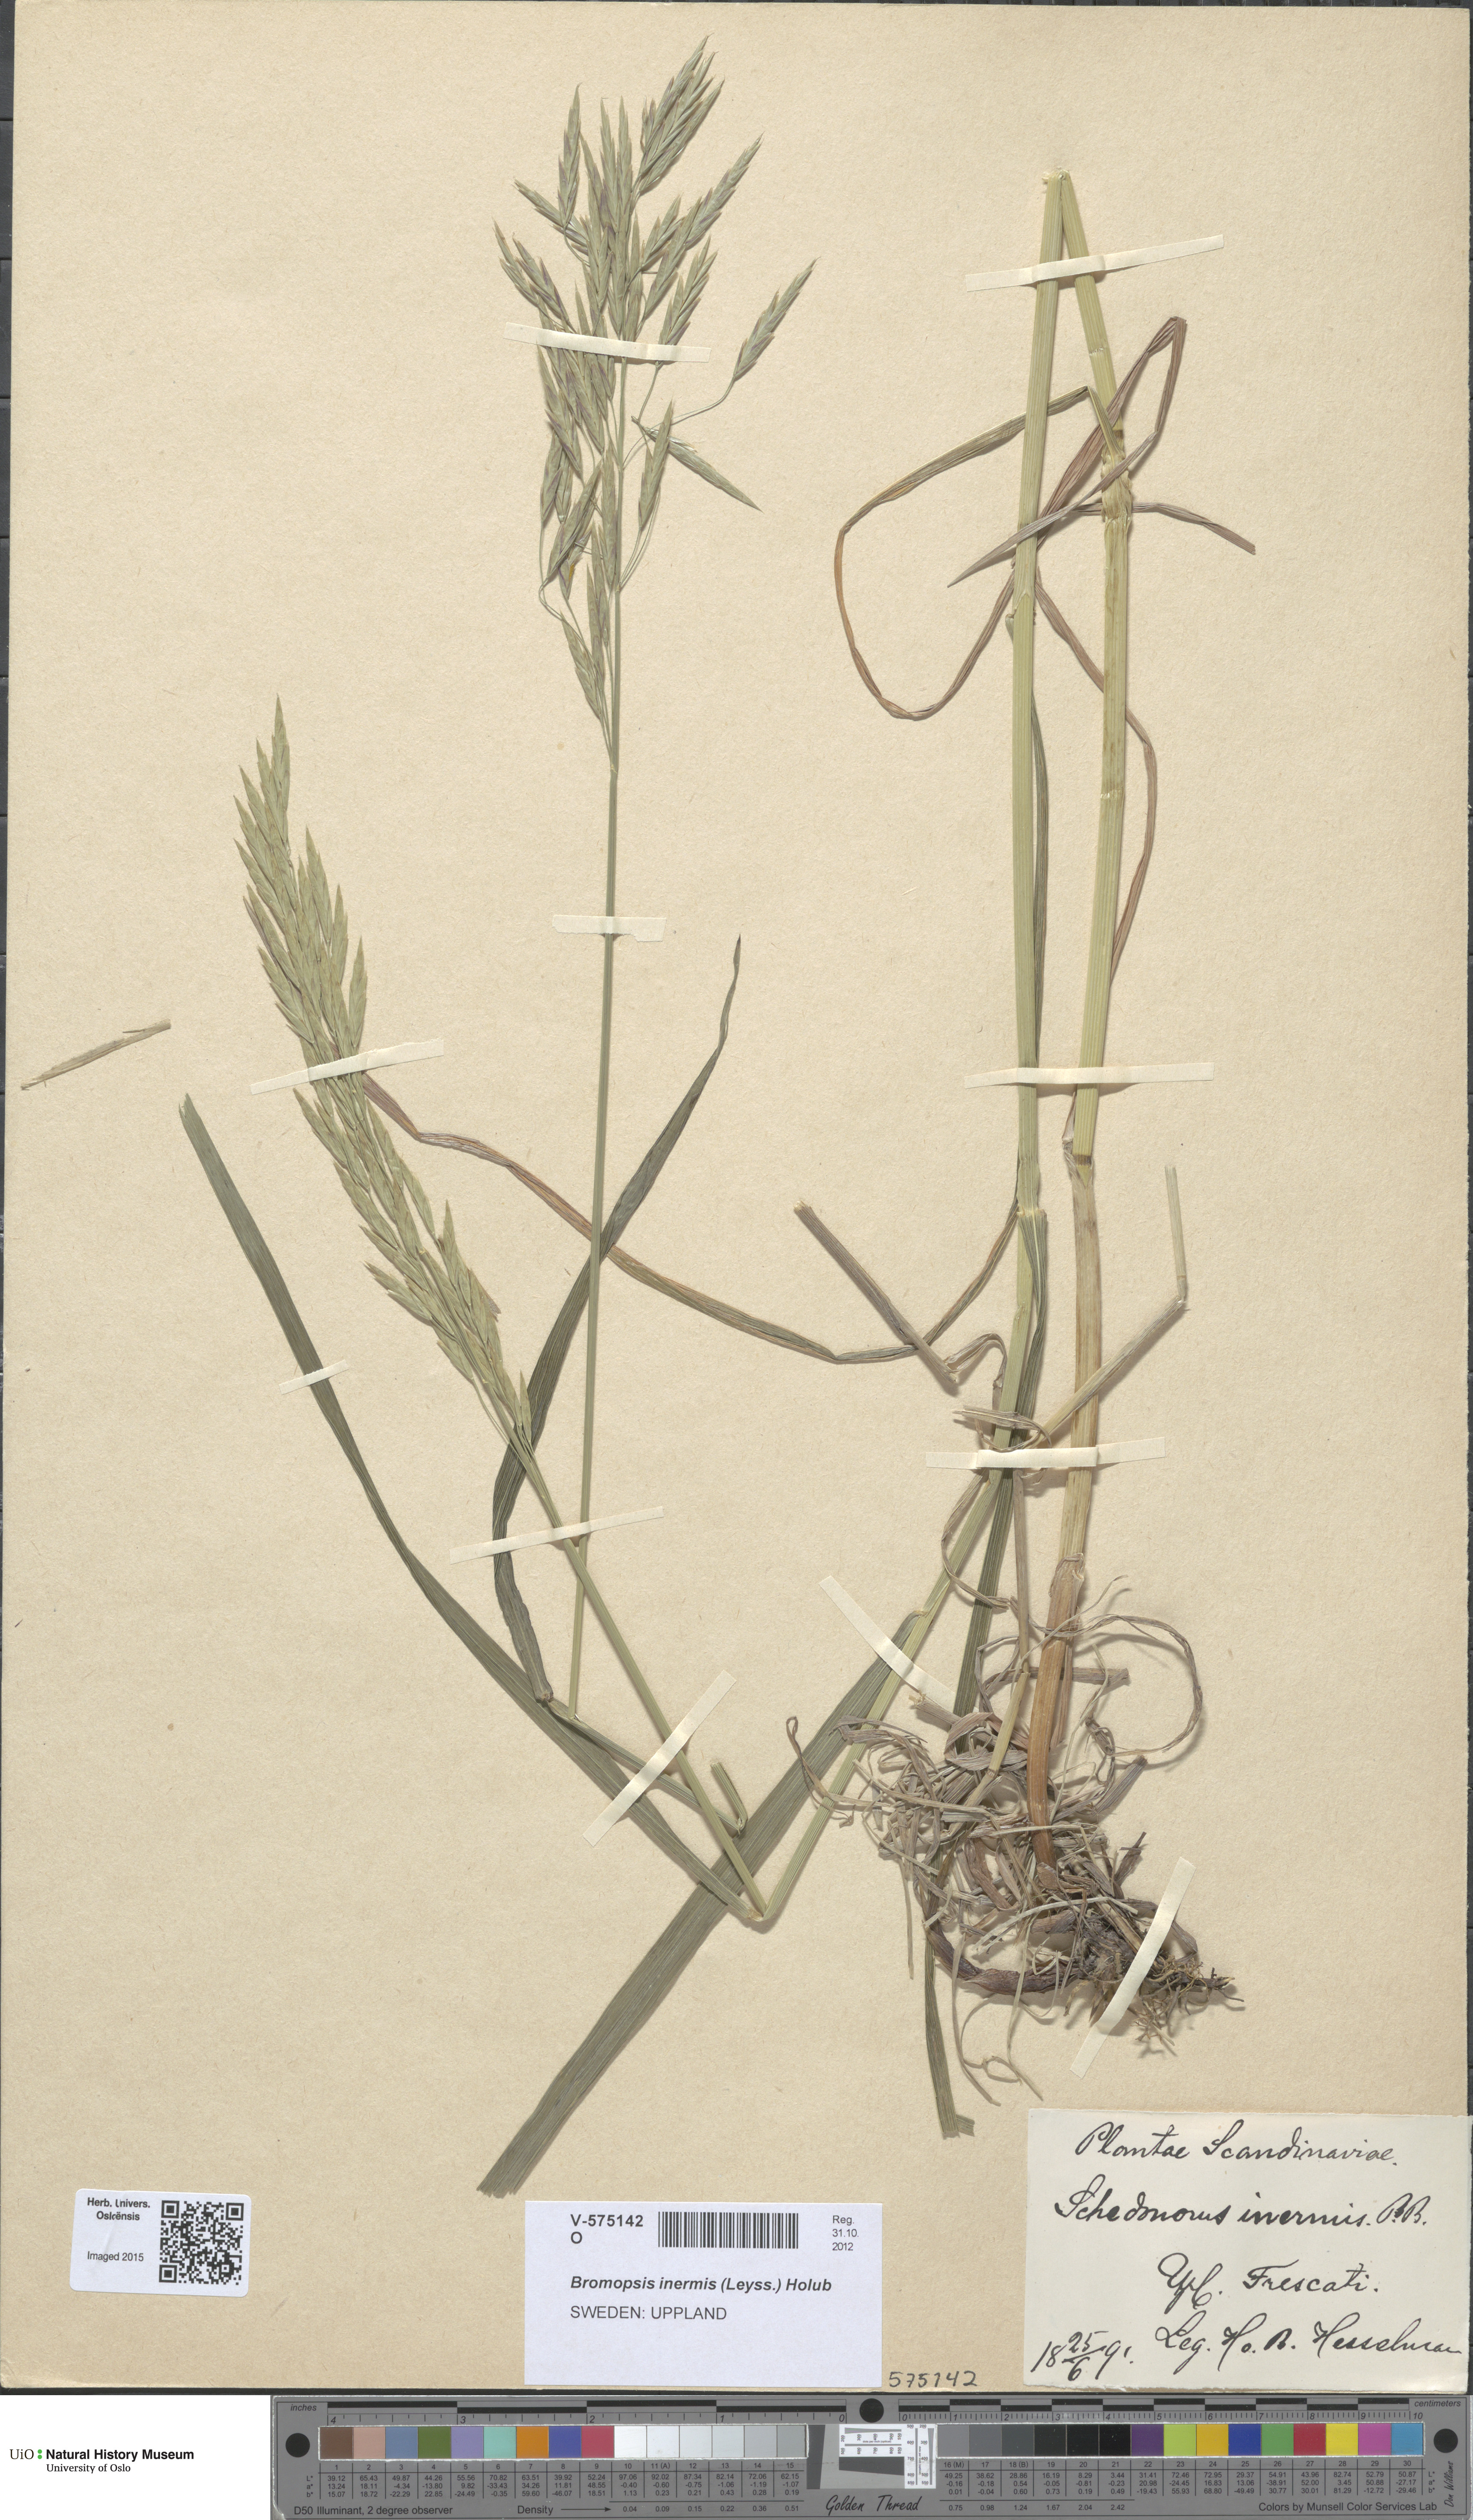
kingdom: Plantae
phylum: Tracheophyta
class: Liliopsida
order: Poales
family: Poaceae
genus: Bromus
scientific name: Bromus inermis
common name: Smooth brome
